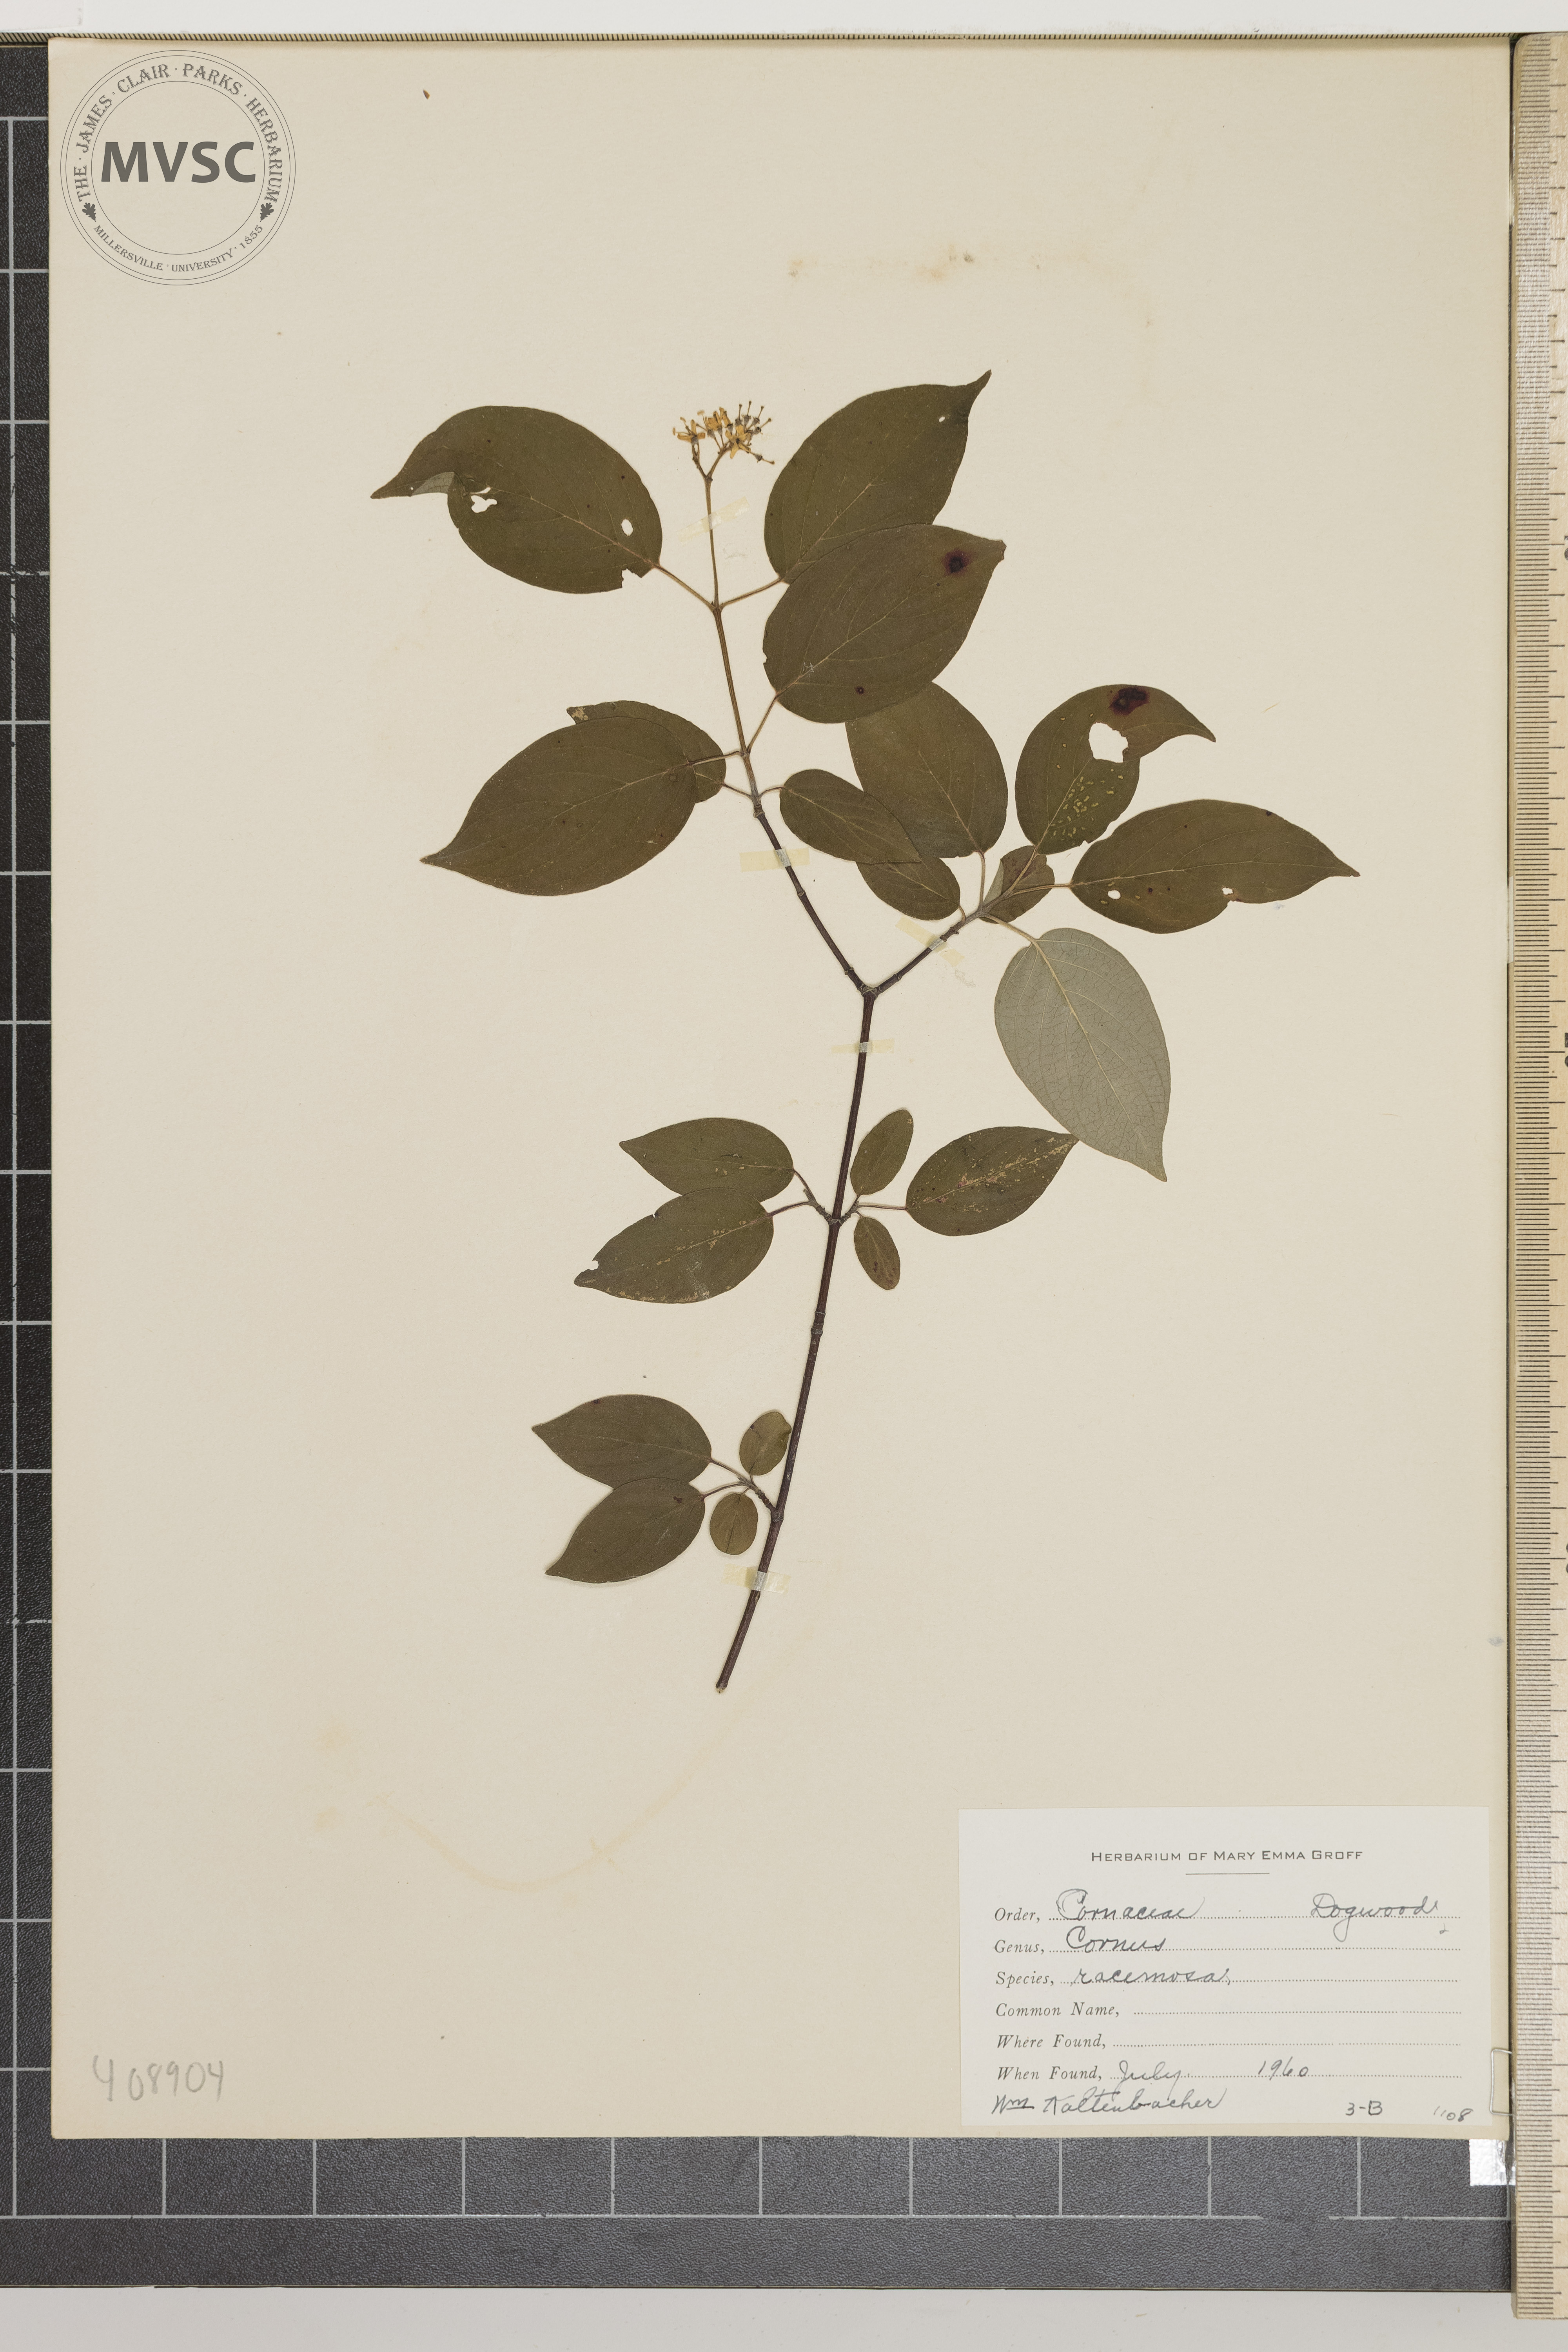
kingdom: Plantae
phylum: Tracheophyta
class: Magnoliopsida
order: Cornales
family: Cornaceae
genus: Cornus
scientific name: Cornus racemosa
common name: Dogwood
